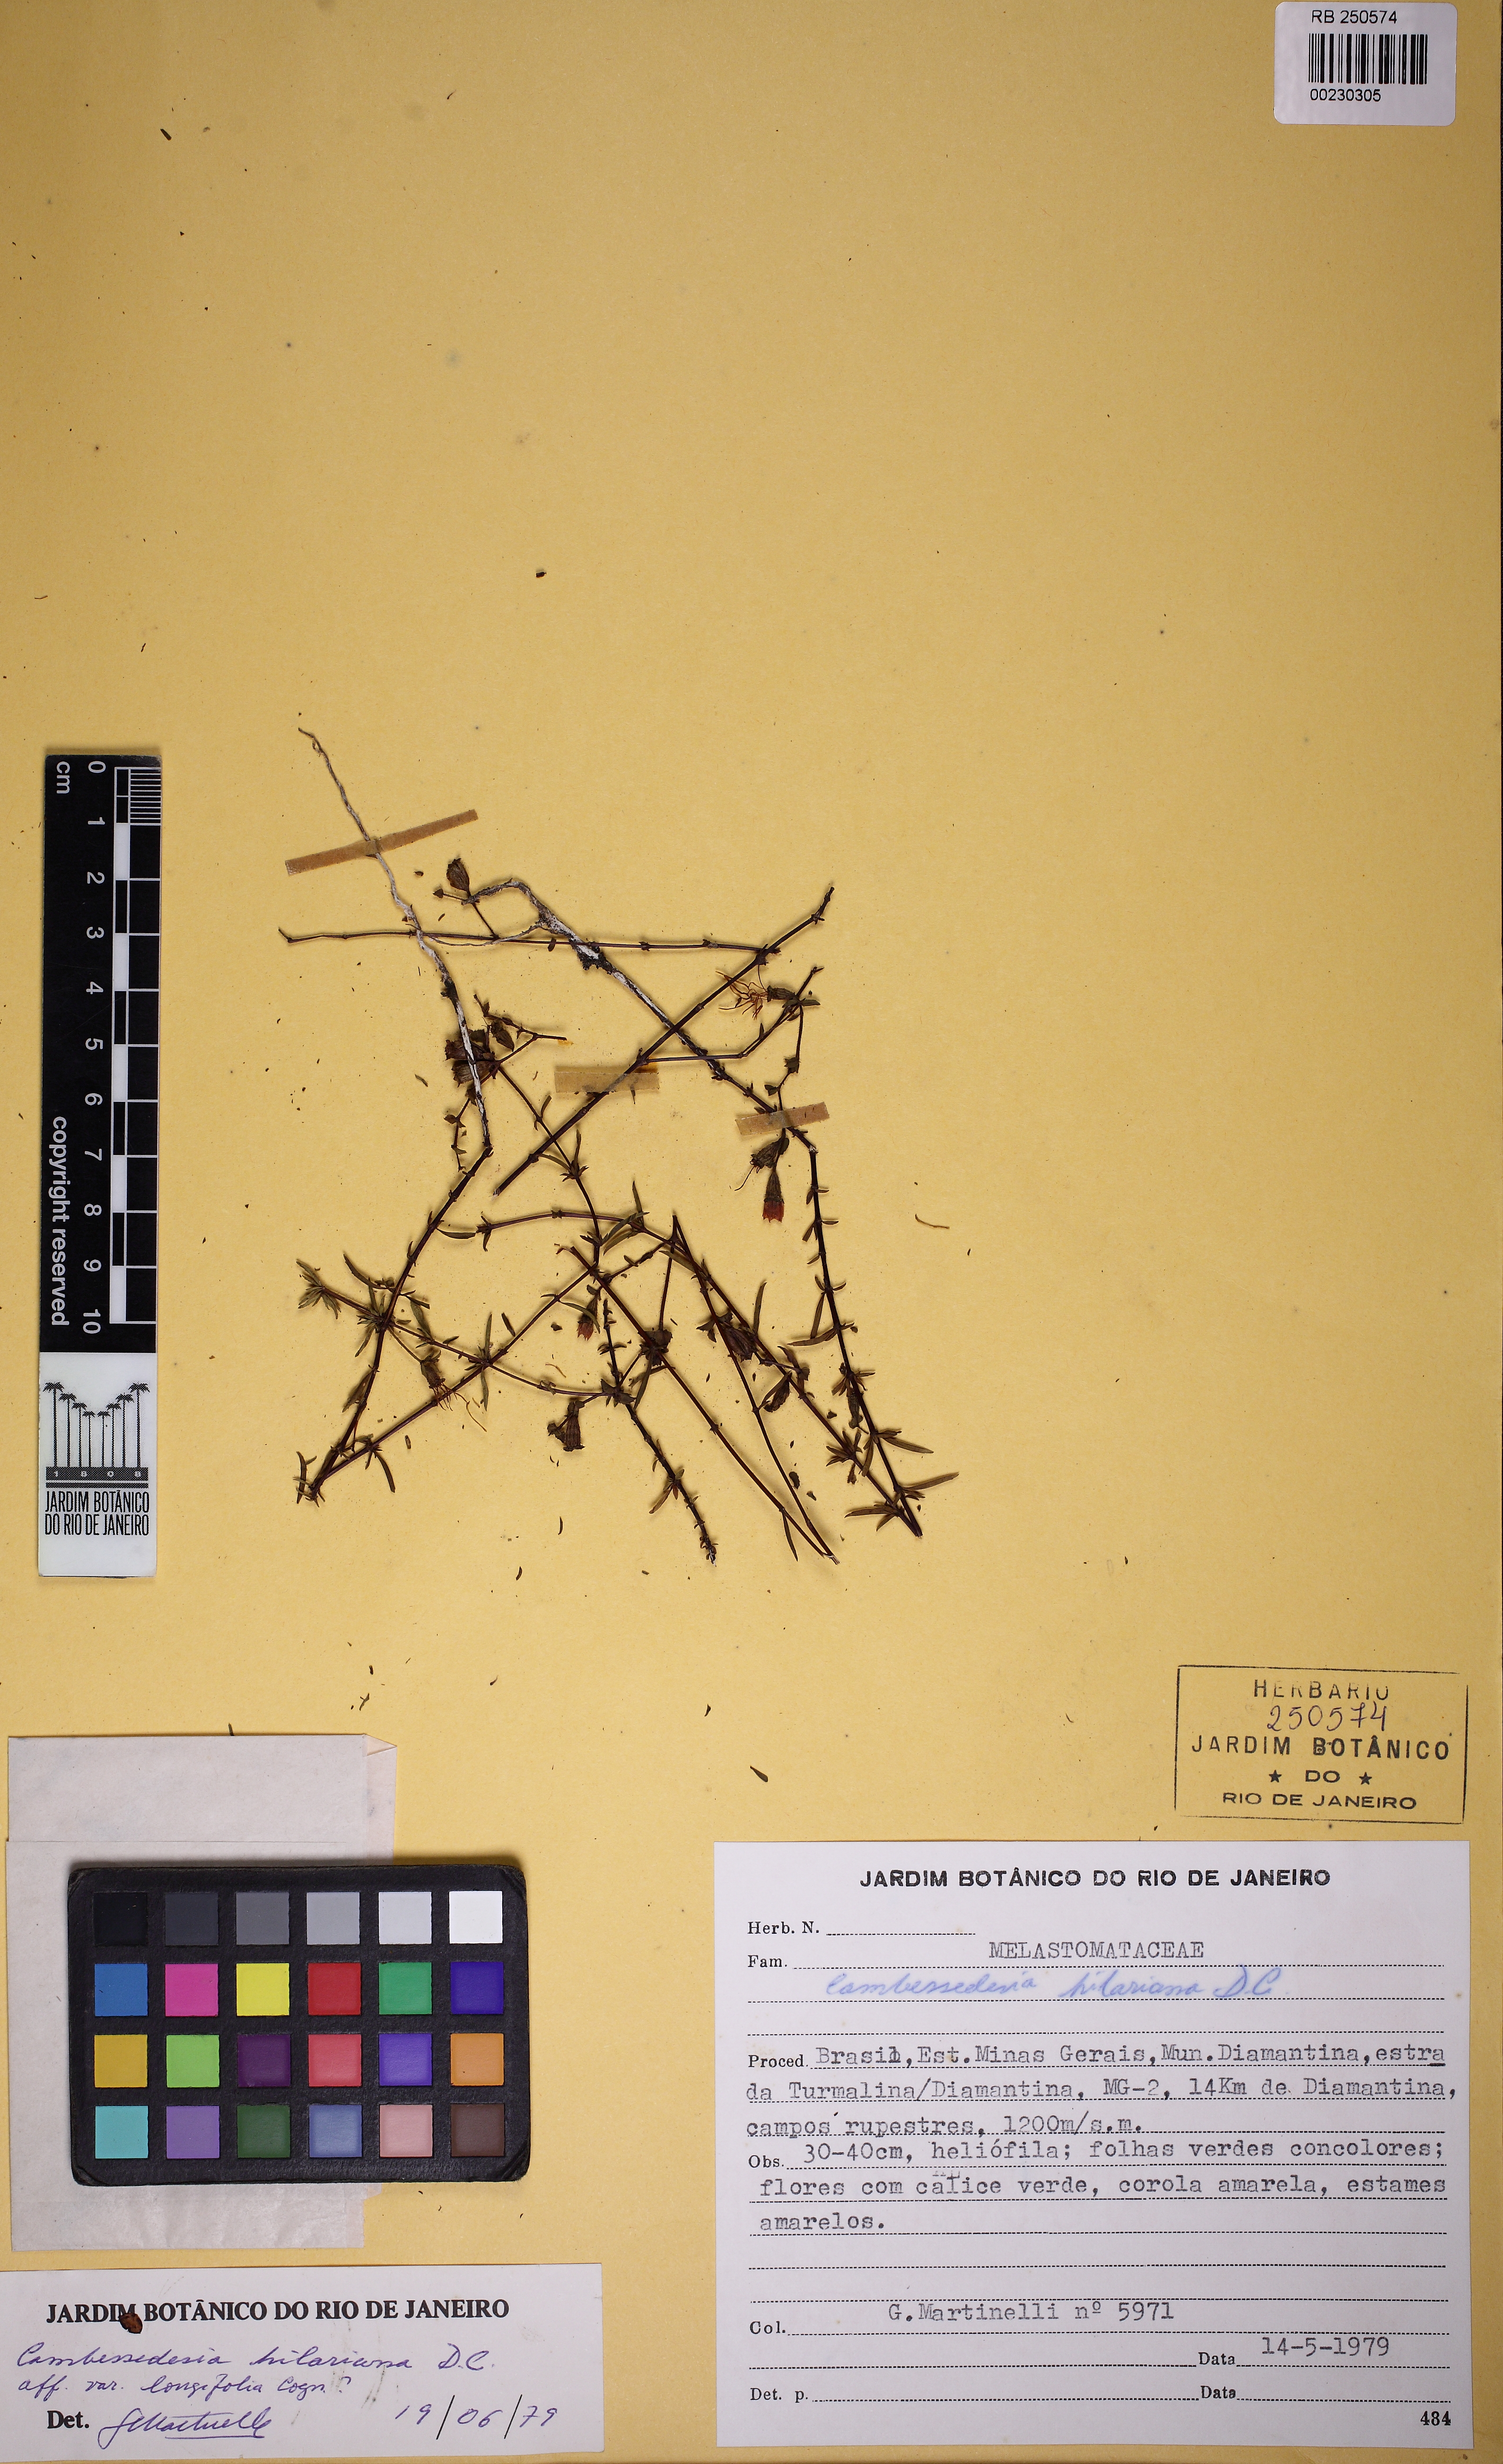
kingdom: Plantae
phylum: Tracheophyta
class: Magnoliopsida
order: Myrtales
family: Melastomataceae
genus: Cambessedesia
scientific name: Cambessedesia hilariana
